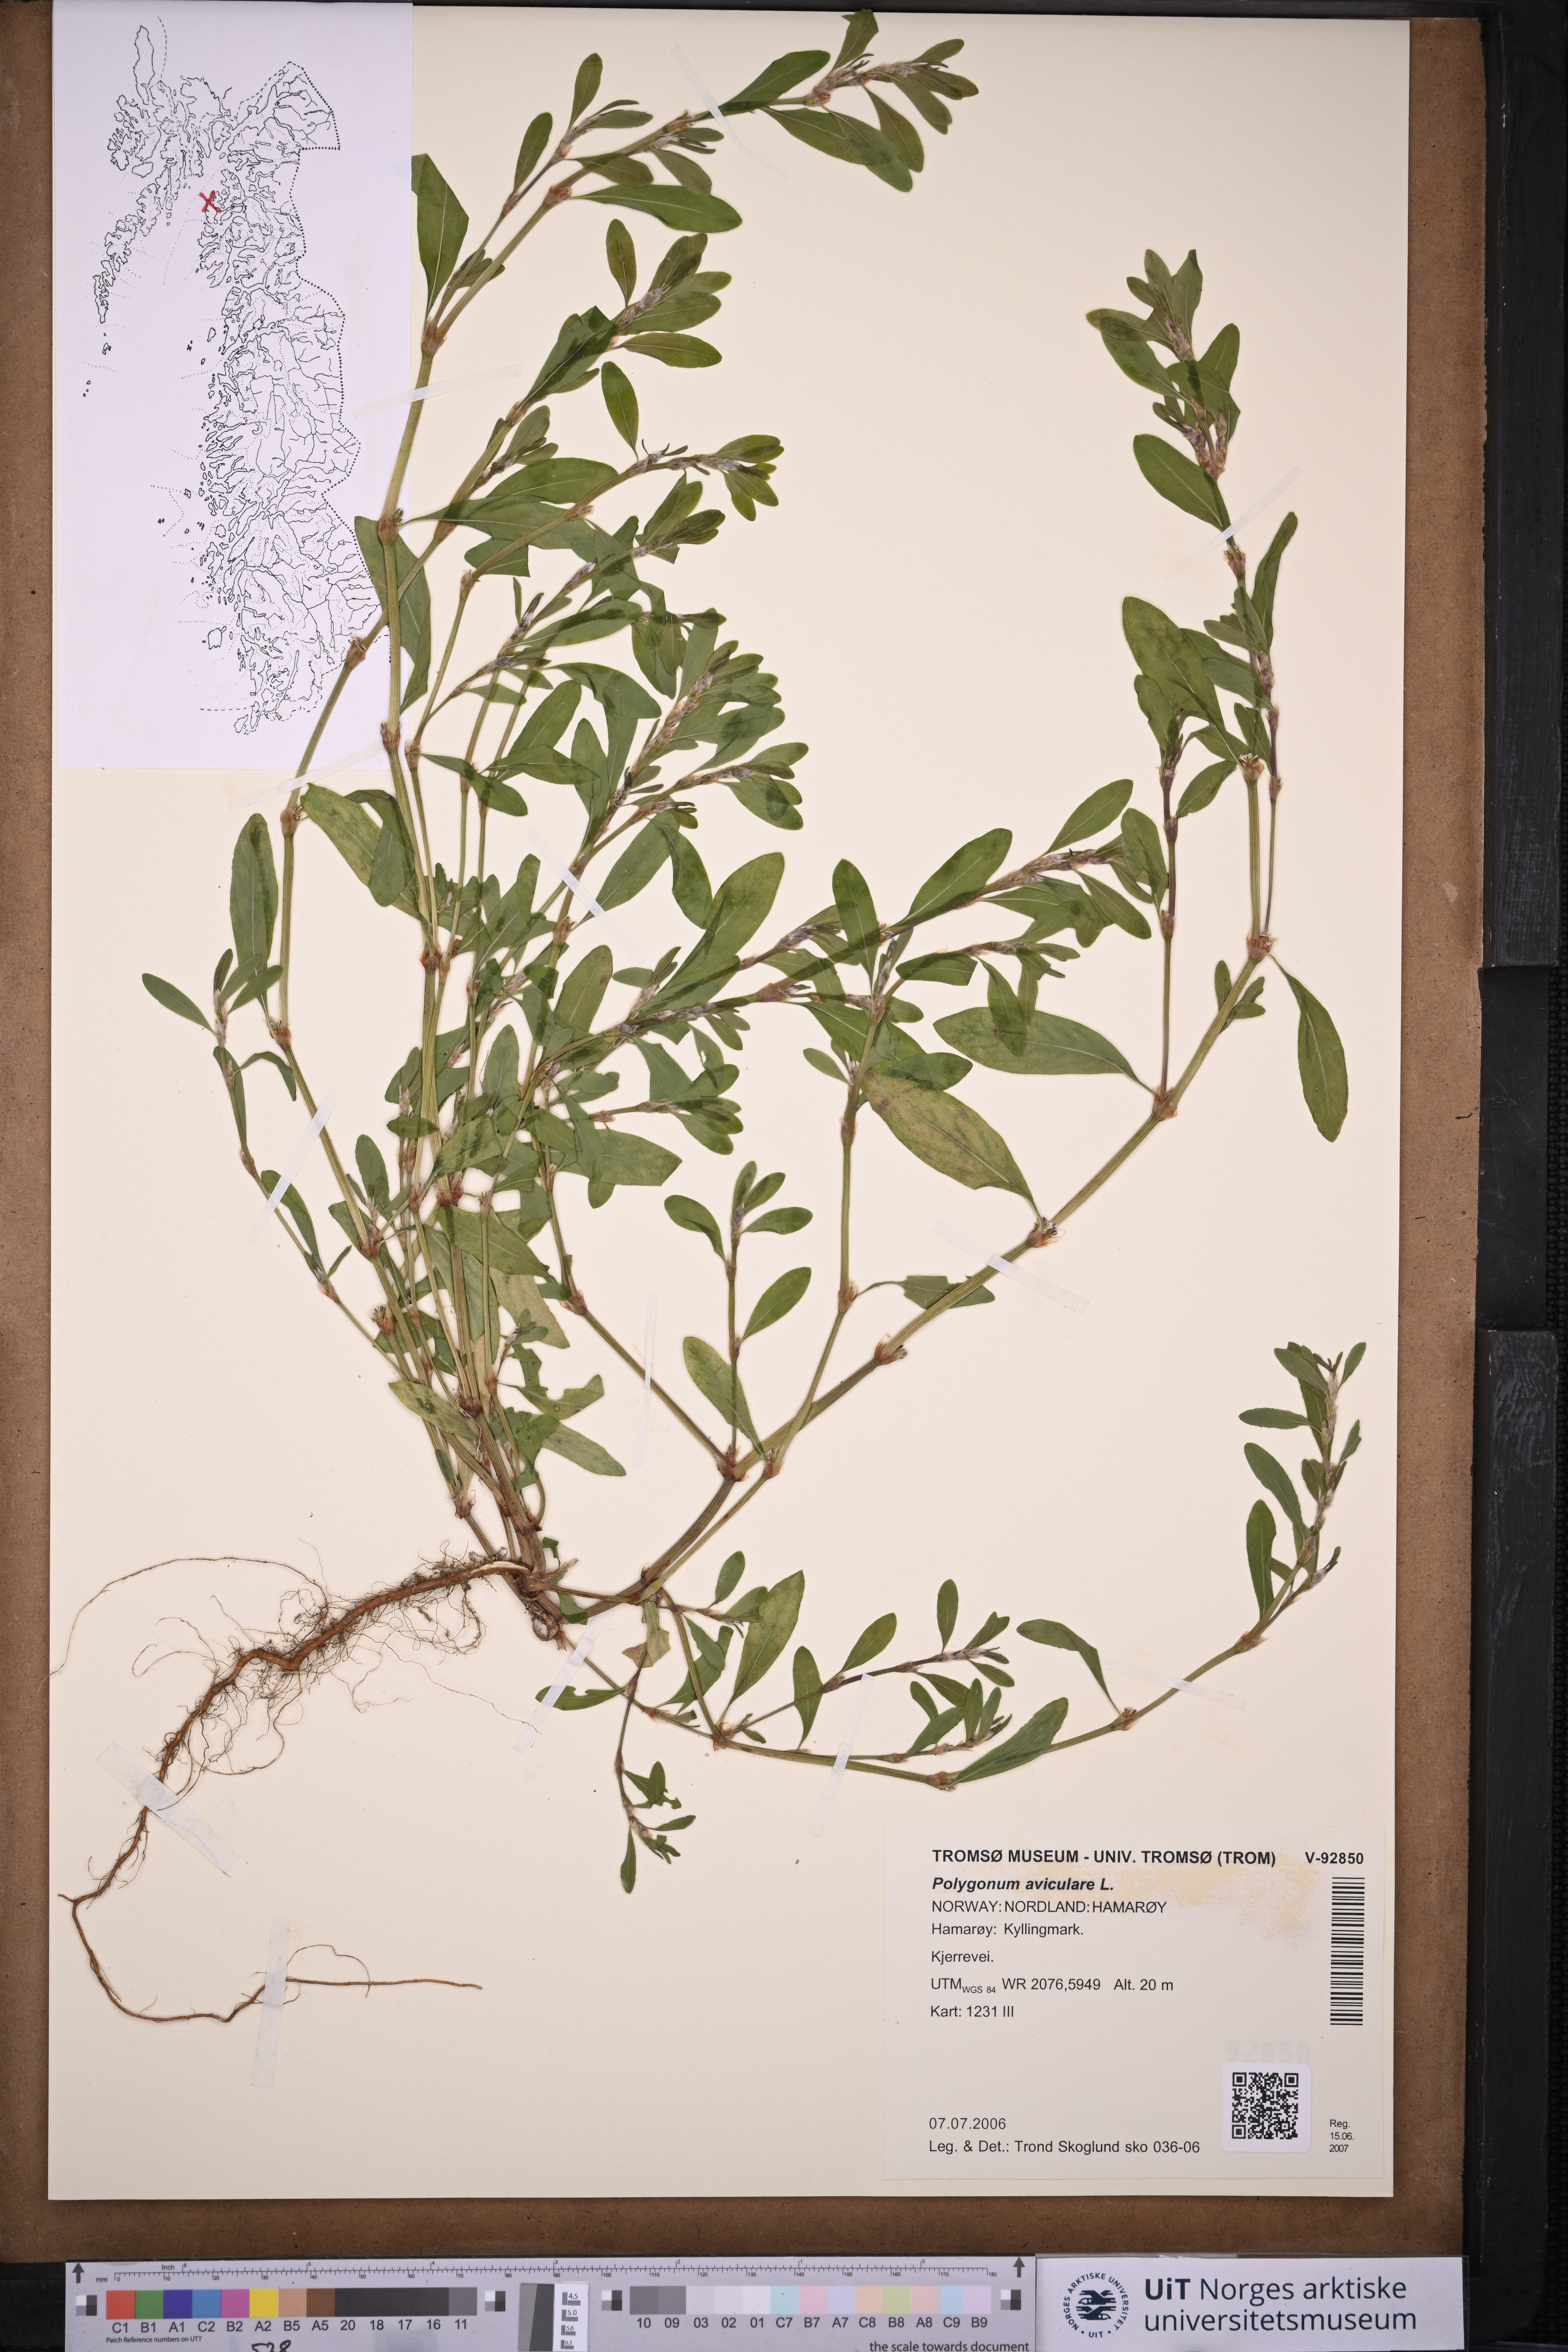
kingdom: Plantae
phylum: Tracheophyta
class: Magnoliopsida
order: Caryophyllales
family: Polygonaceae
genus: Polygonum
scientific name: Polygonum aviculare
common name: Prostrate knotweed
